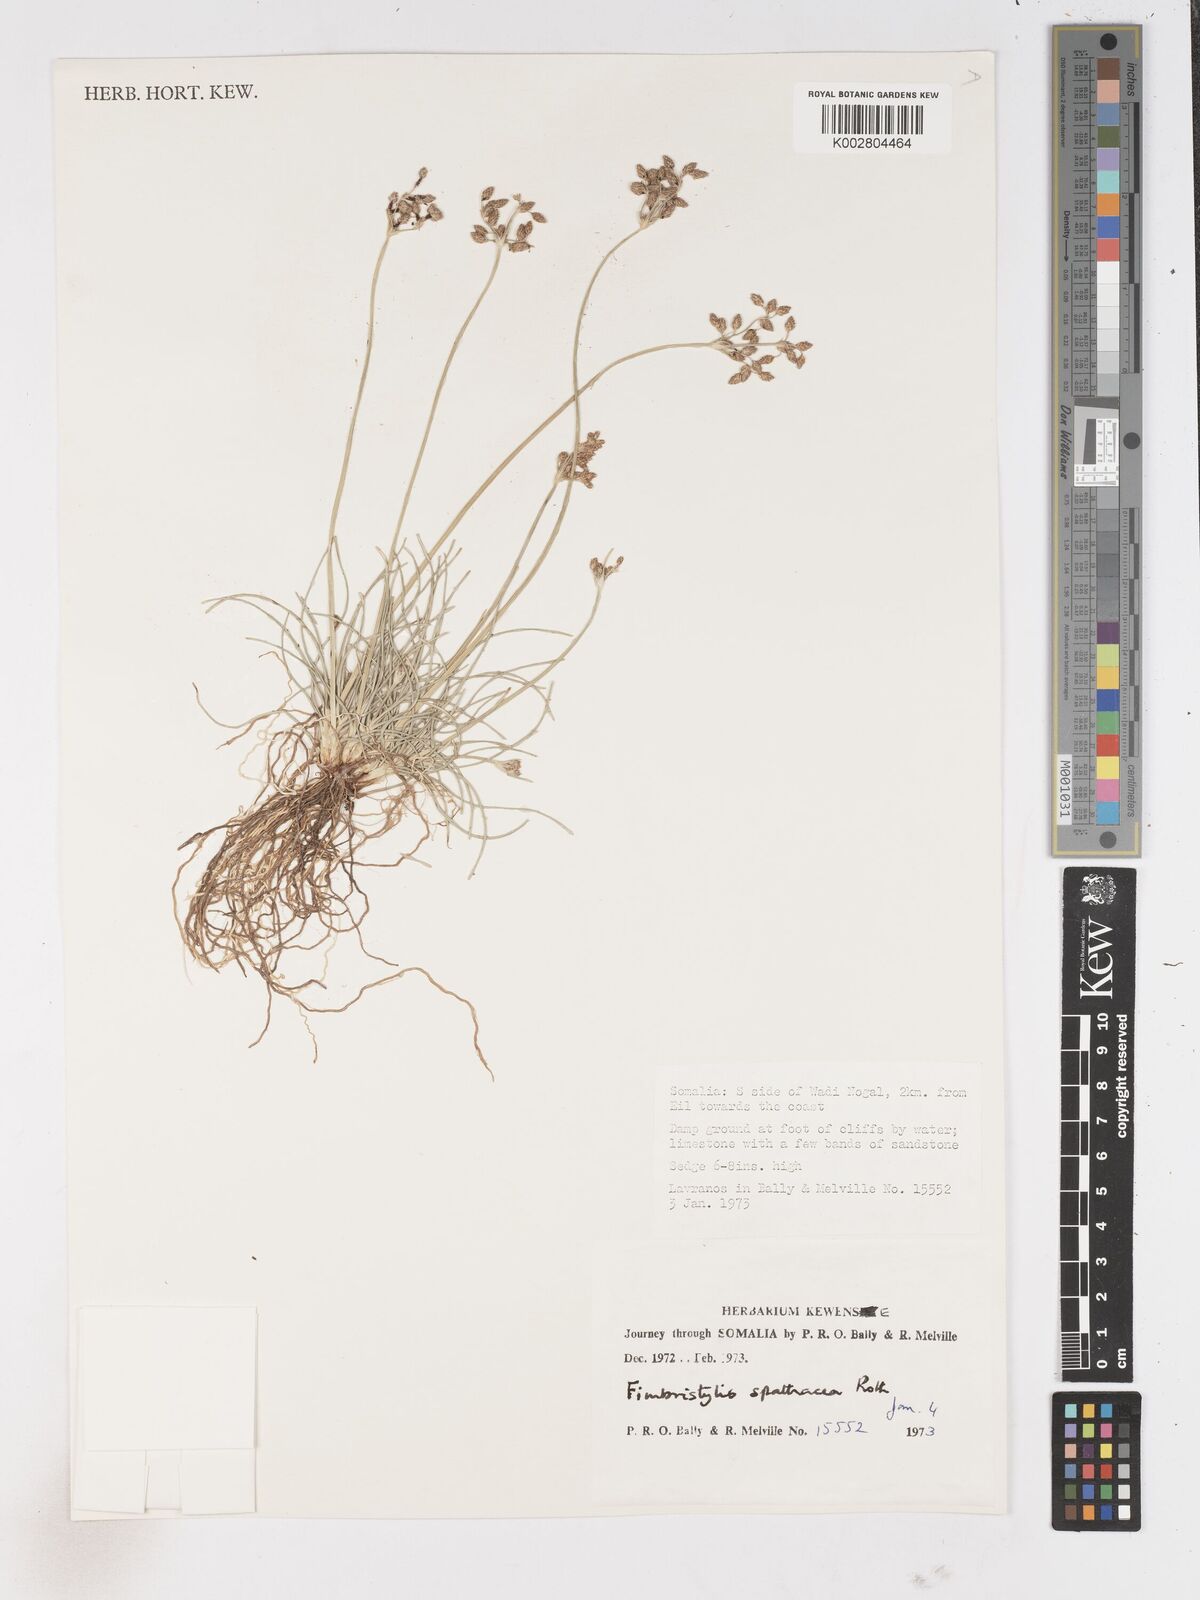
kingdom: Plantae
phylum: Tracheophyta
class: Liliopsida
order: Poales
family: Cyperaceae
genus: Fimbristylis
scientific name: Fimbristylis cymosa
